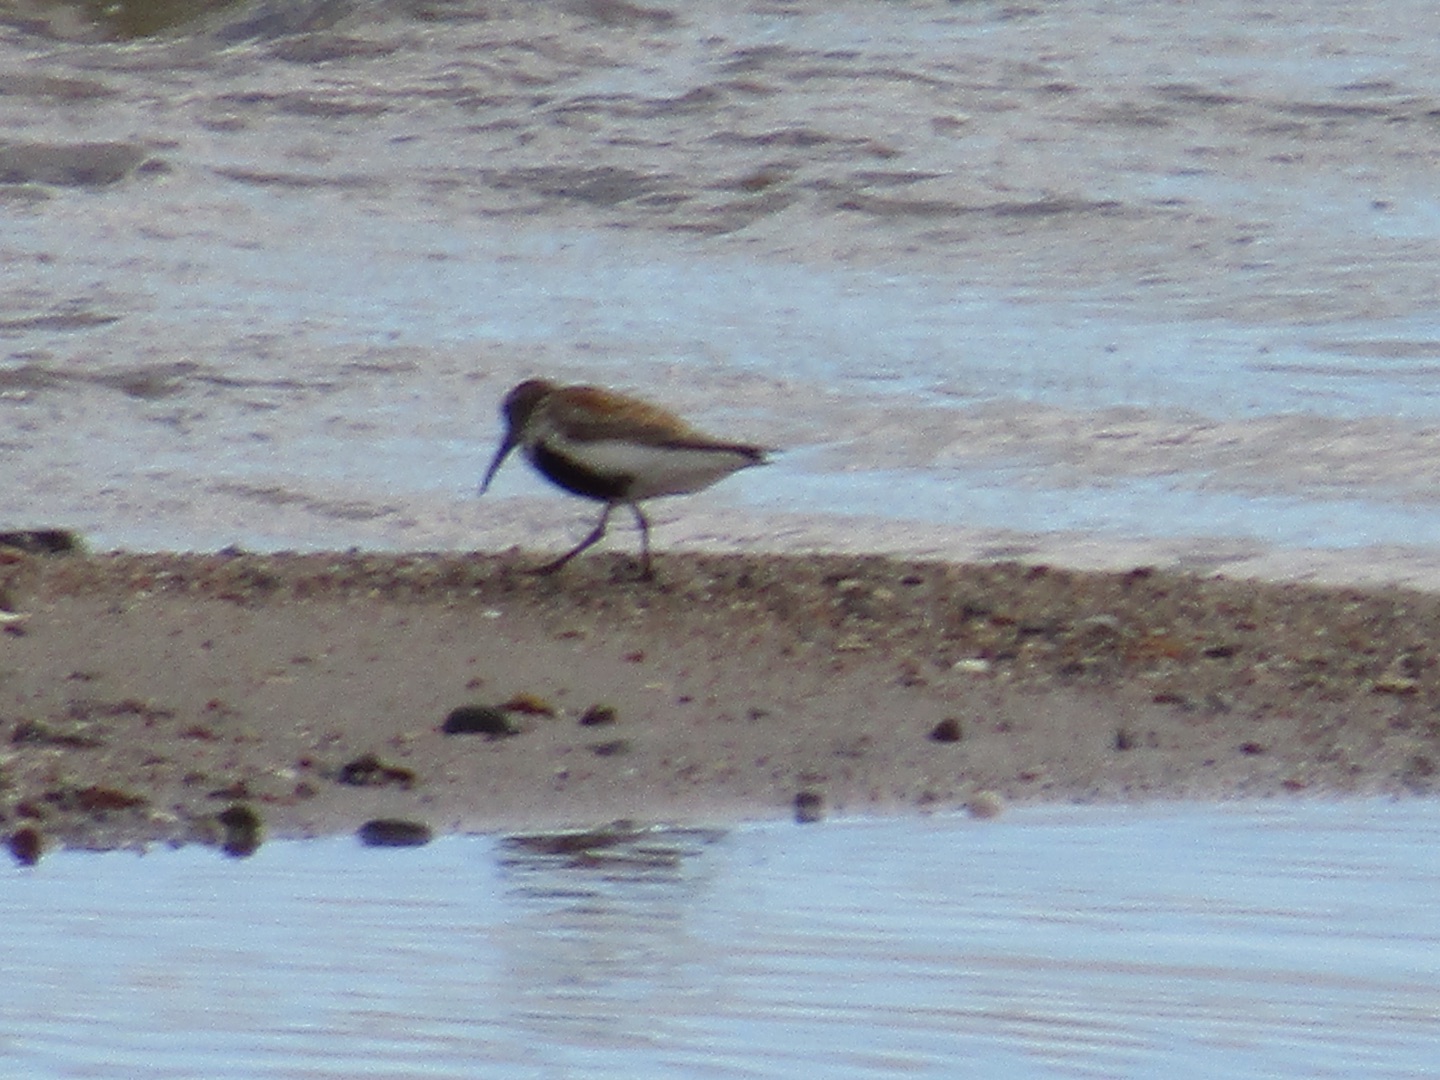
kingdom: Animalia
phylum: Chordata
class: Aves
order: Charadriiformes
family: Scolopacidae
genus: Calidris
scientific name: Calidris alpina
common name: Almindelig ryle
